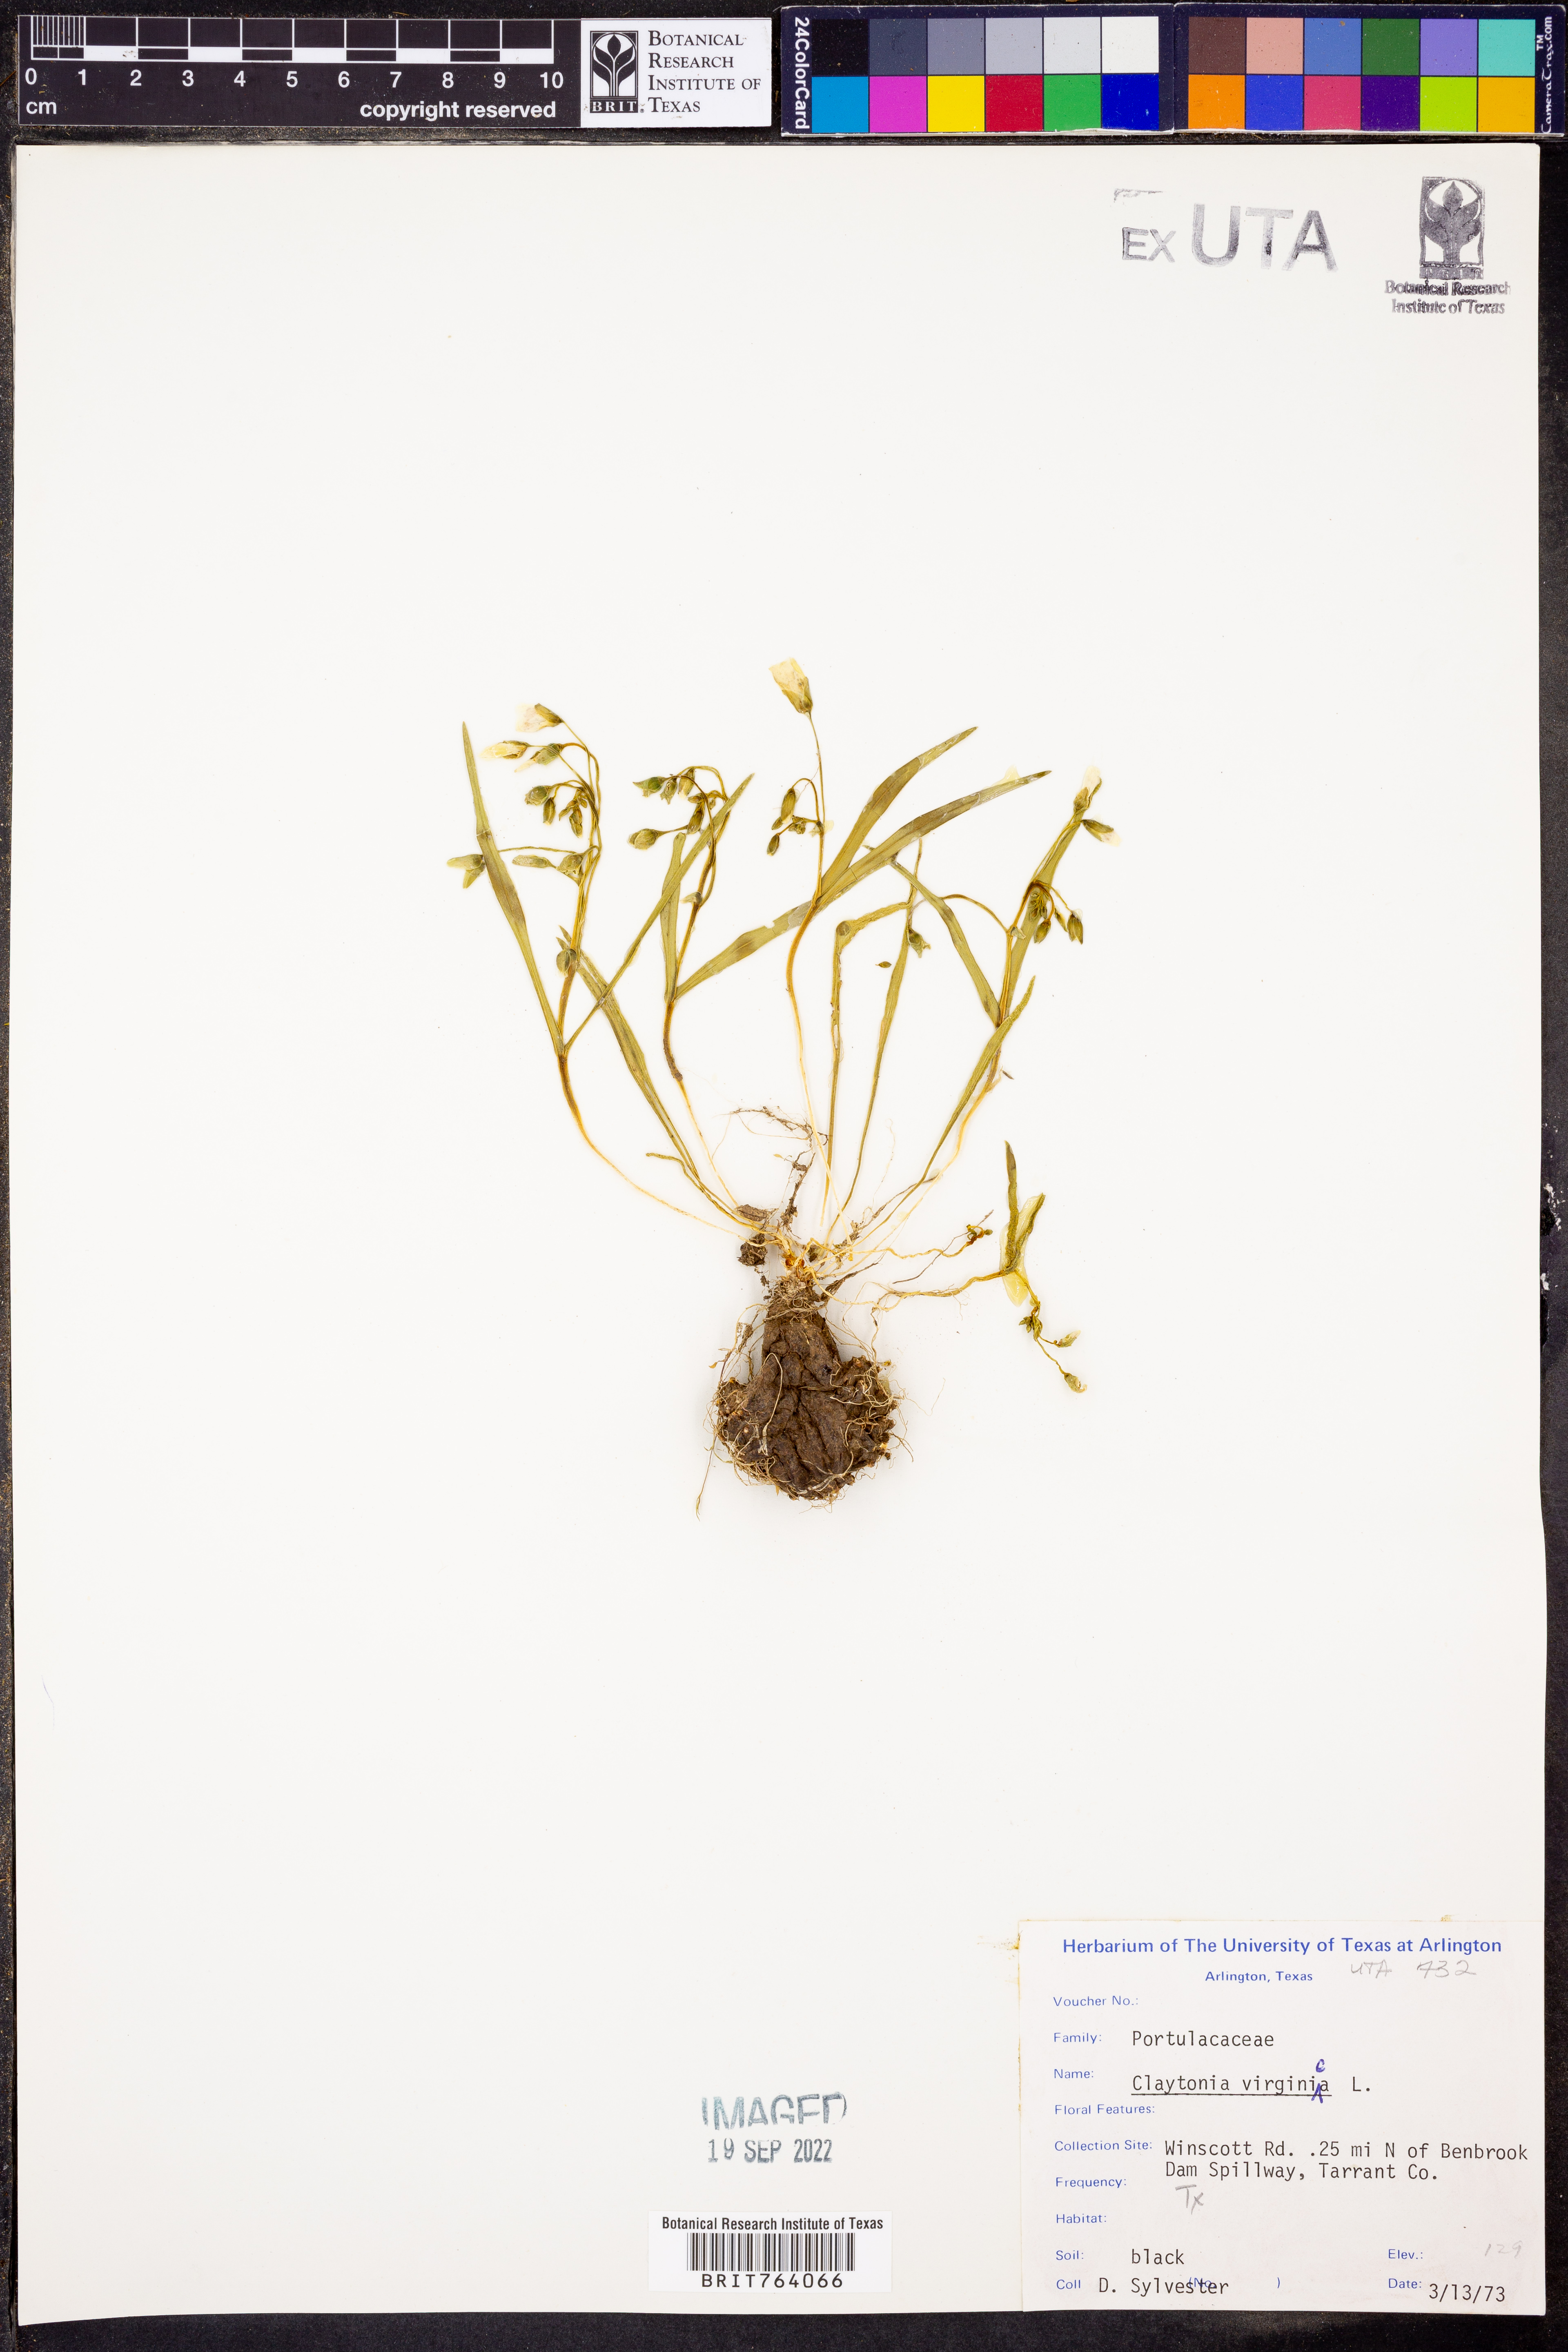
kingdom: Plantae
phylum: Tracheophyta
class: Magnoliopsida
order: Caryophyllales
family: Montiaceae
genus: Claytonia
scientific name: Claytonia virginica
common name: Virginia springbeauty
